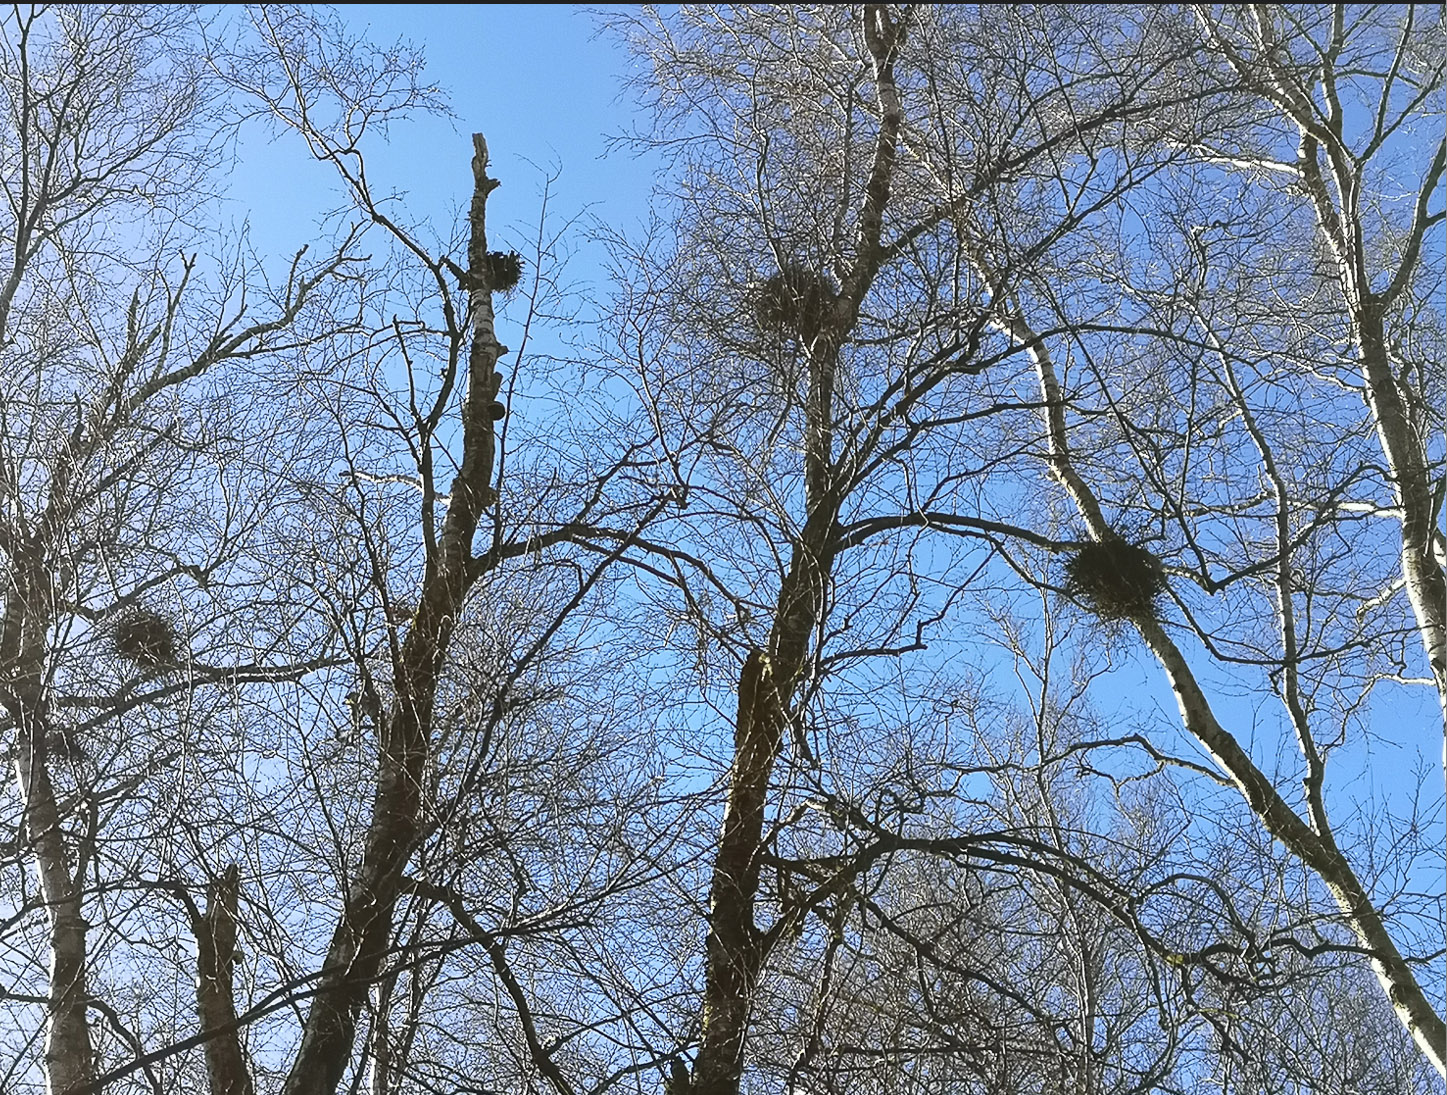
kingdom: Fungi
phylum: Ascomycota
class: Taphrinomycetes
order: Taphrinales
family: Taphrinaceae
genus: Taphrina
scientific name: Taphrina betulina
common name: hekse-sækdug
